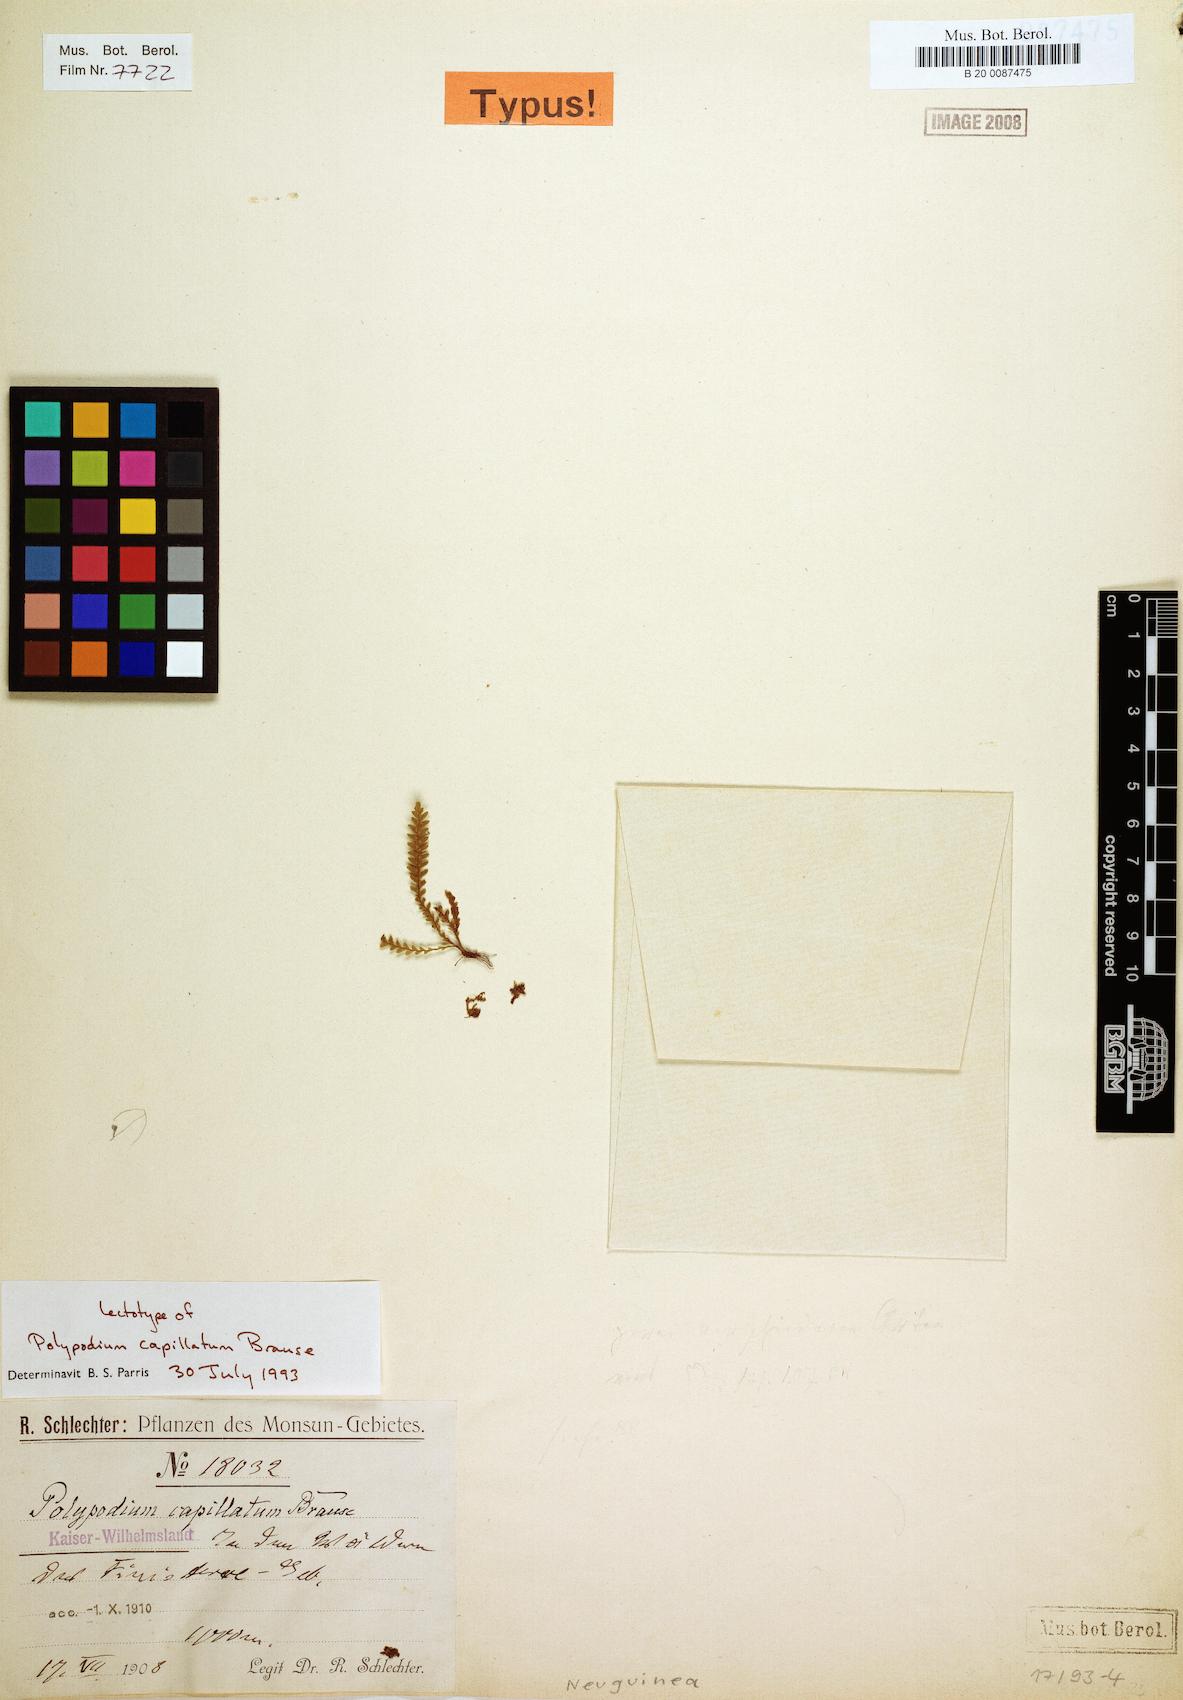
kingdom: Plantae
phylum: Tracheophyta
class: Polypodiopsida
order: Polypodiales
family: Polypodiaceae
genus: Tomophyllum
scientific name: Tomophyllum callophyllum
